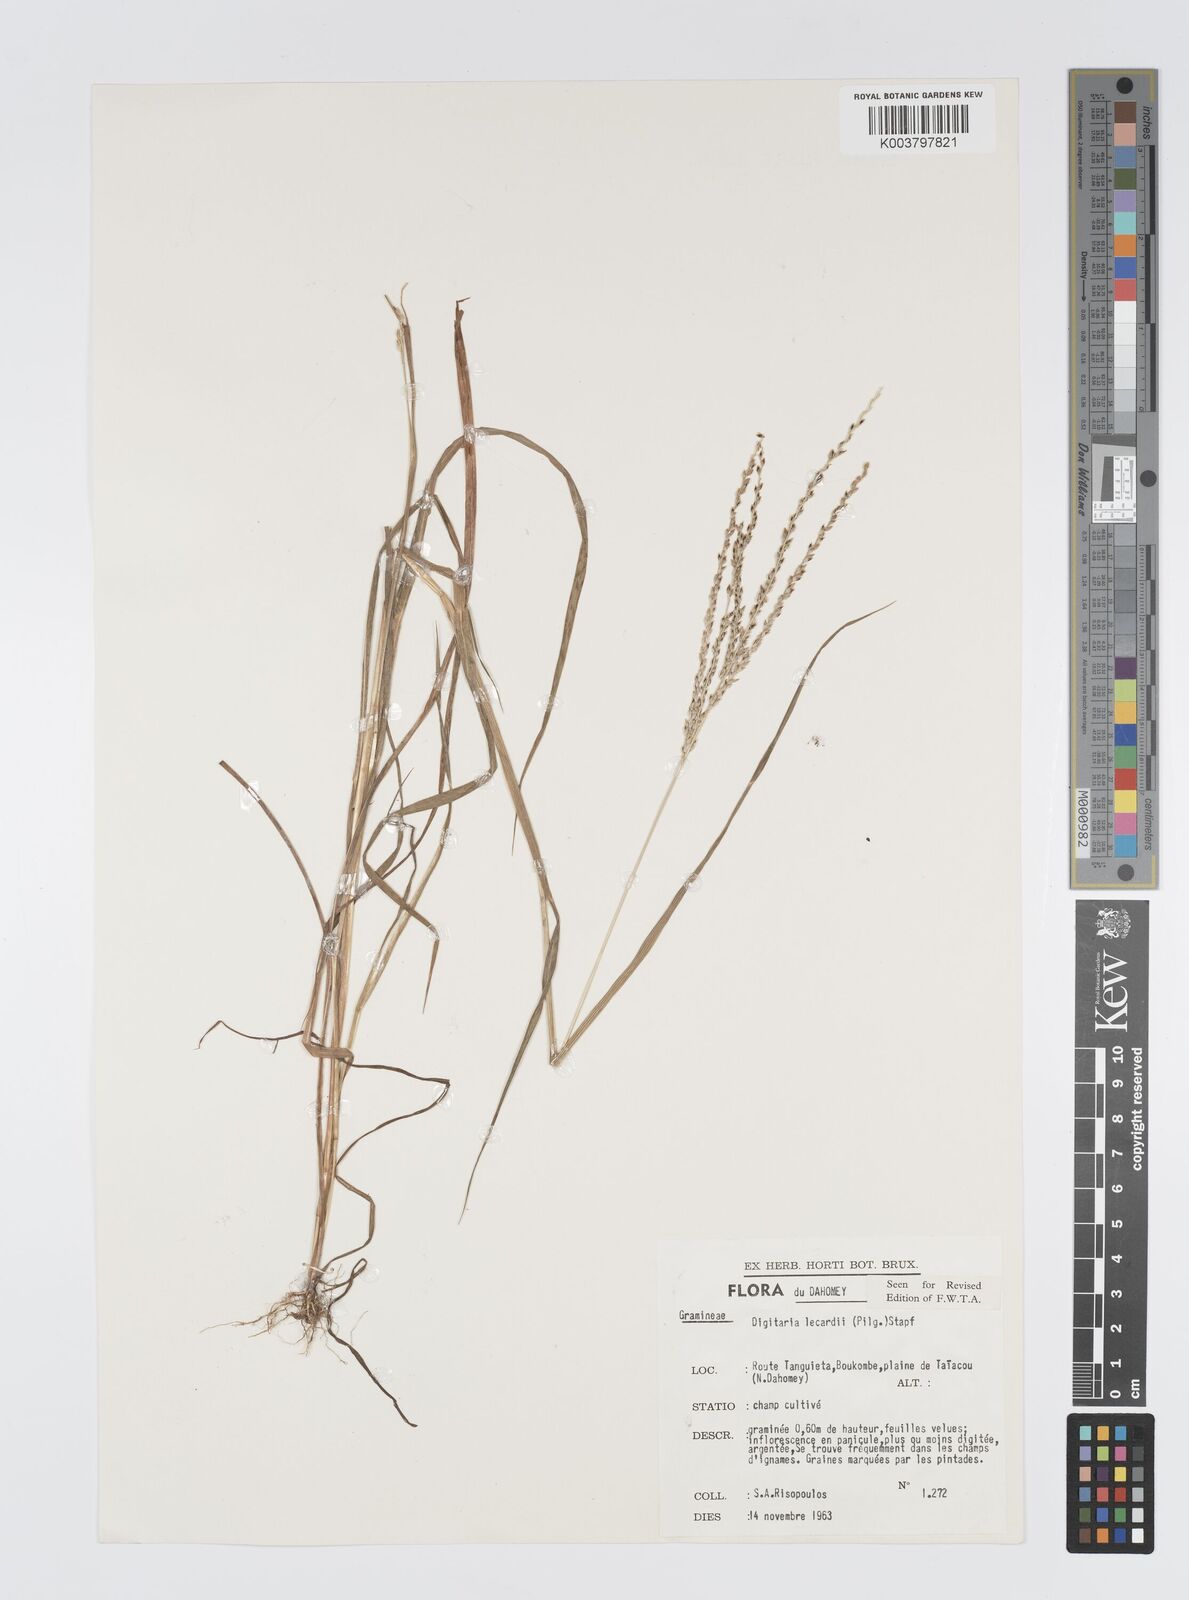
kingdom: Plantae
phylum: Tracheophyta
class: Liliopsida
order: Poales
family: Poaceae
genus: Digitaria
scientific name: Digitaria
